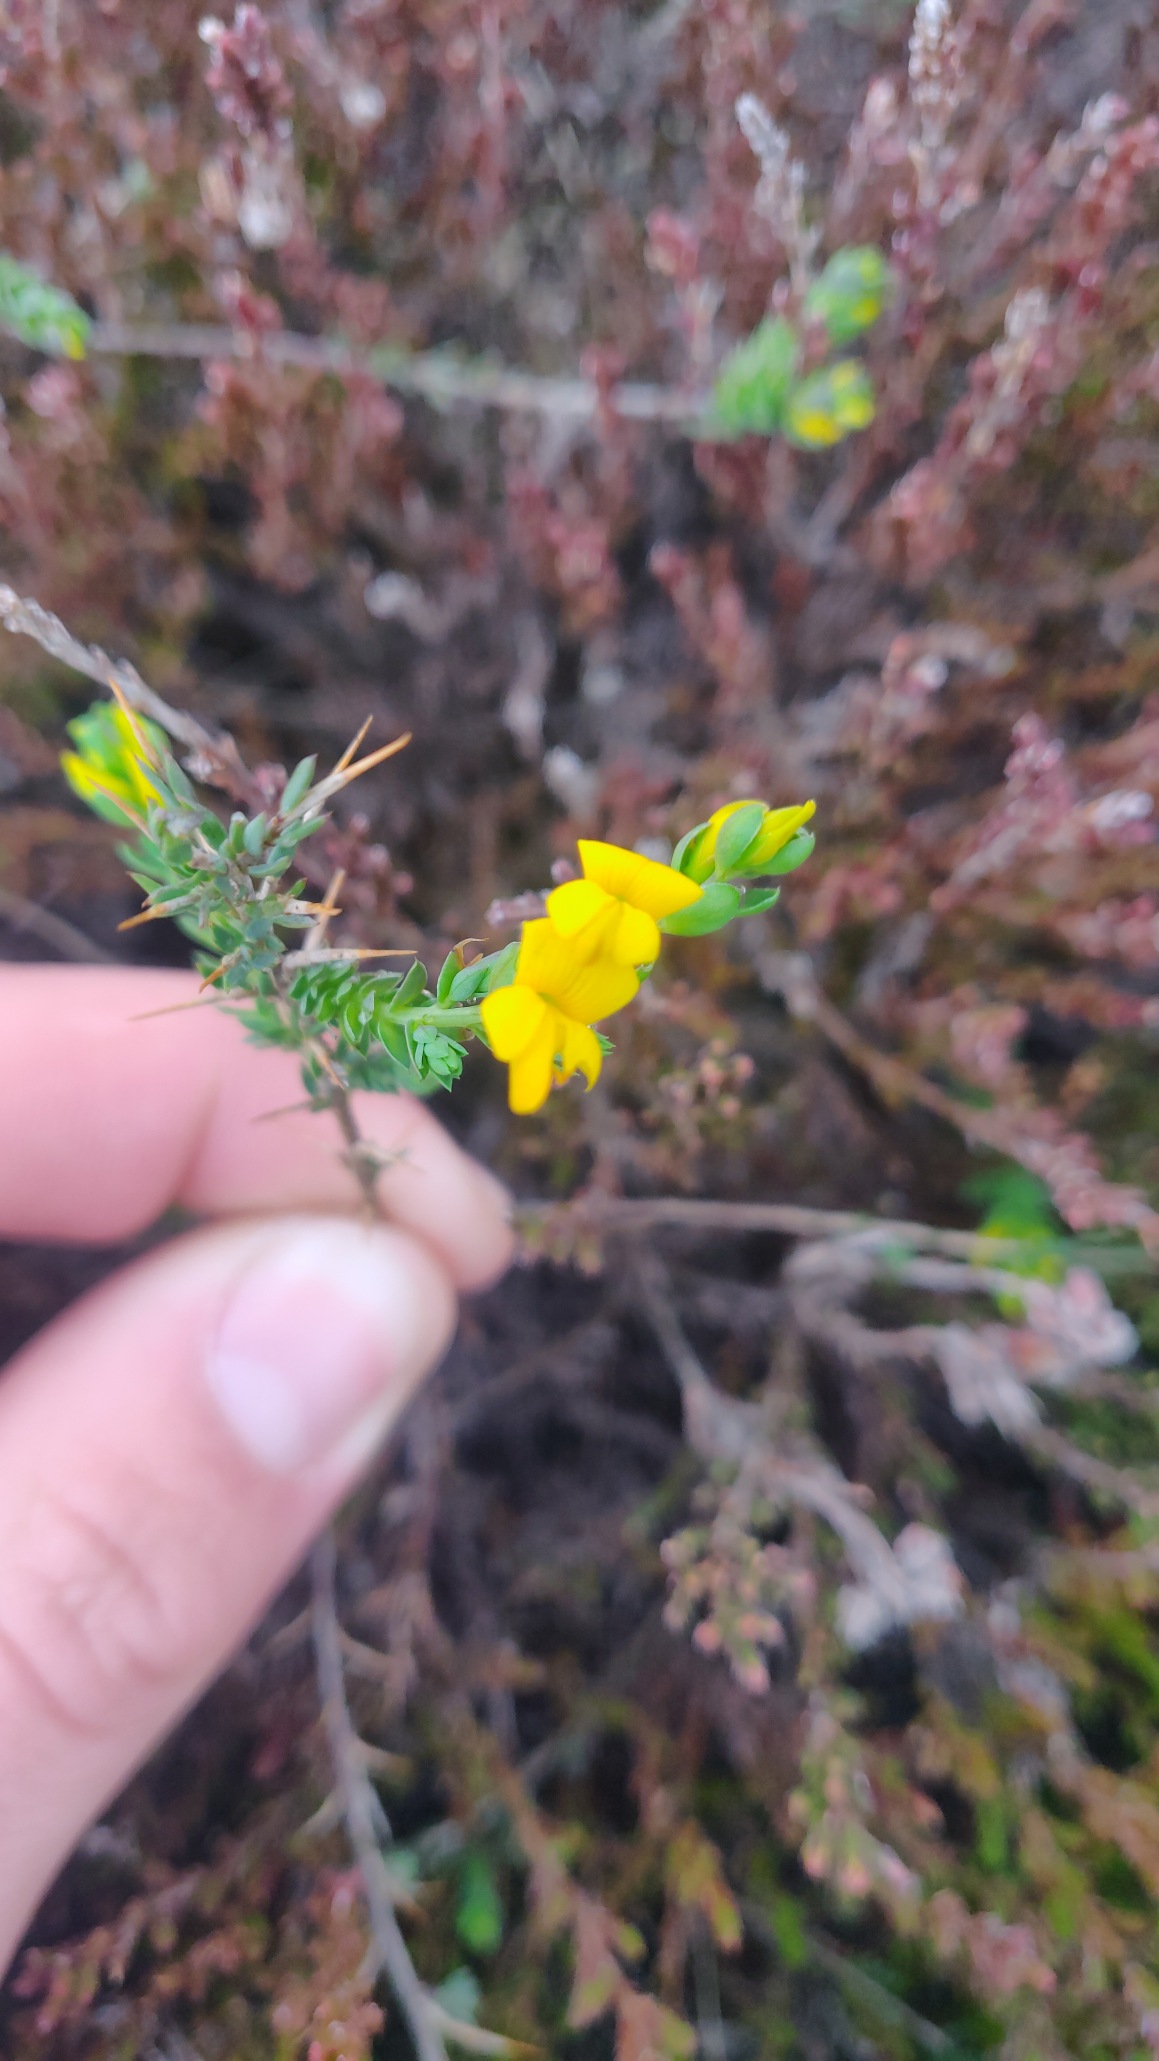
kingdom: Plantae
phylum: Tracheophyta
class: Magnoliopsida
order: Fabales
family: Fabaceae
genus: Genista
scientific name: Genista anglica
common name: Engelsk visse
